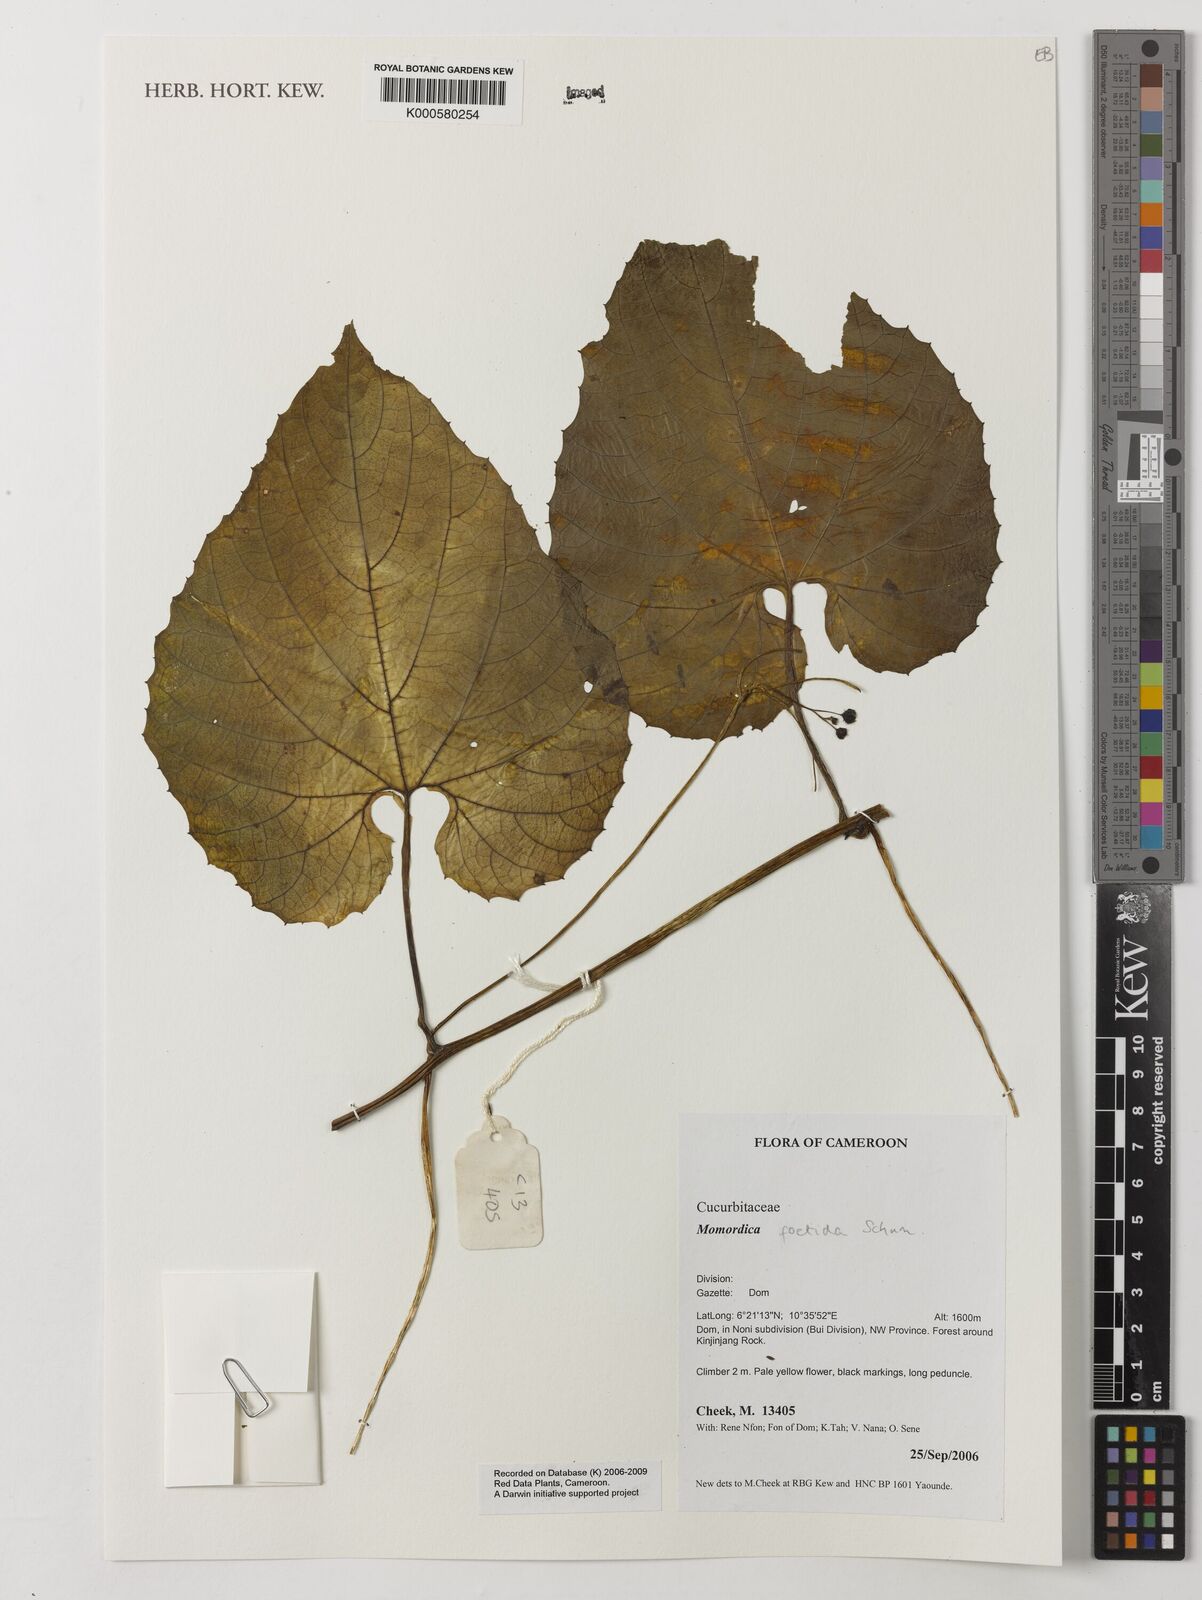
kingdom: Plantae
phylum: Tracheophyta
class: Magnoliopsida
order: Cucurbitales
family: Cucurbitaceae
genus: Momordica
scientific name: Momordica foetida
